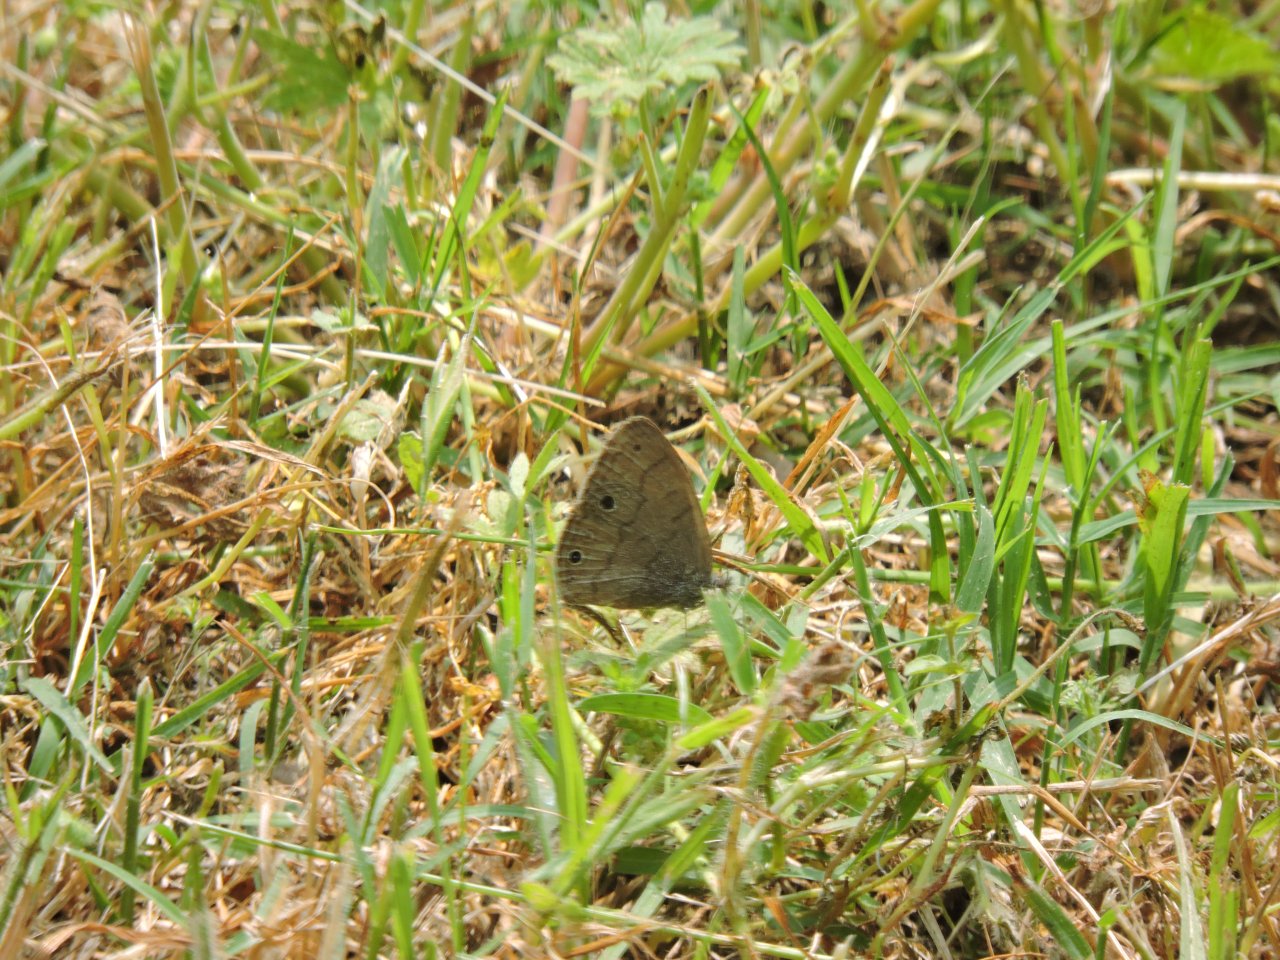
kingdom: Animalia
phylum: Arthropoda
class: Insecta
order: Lepidoptera
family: Nymphalidae
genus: Hermeuptychia
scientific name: Hermeuptychia hermes
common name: Carolina Satyr
